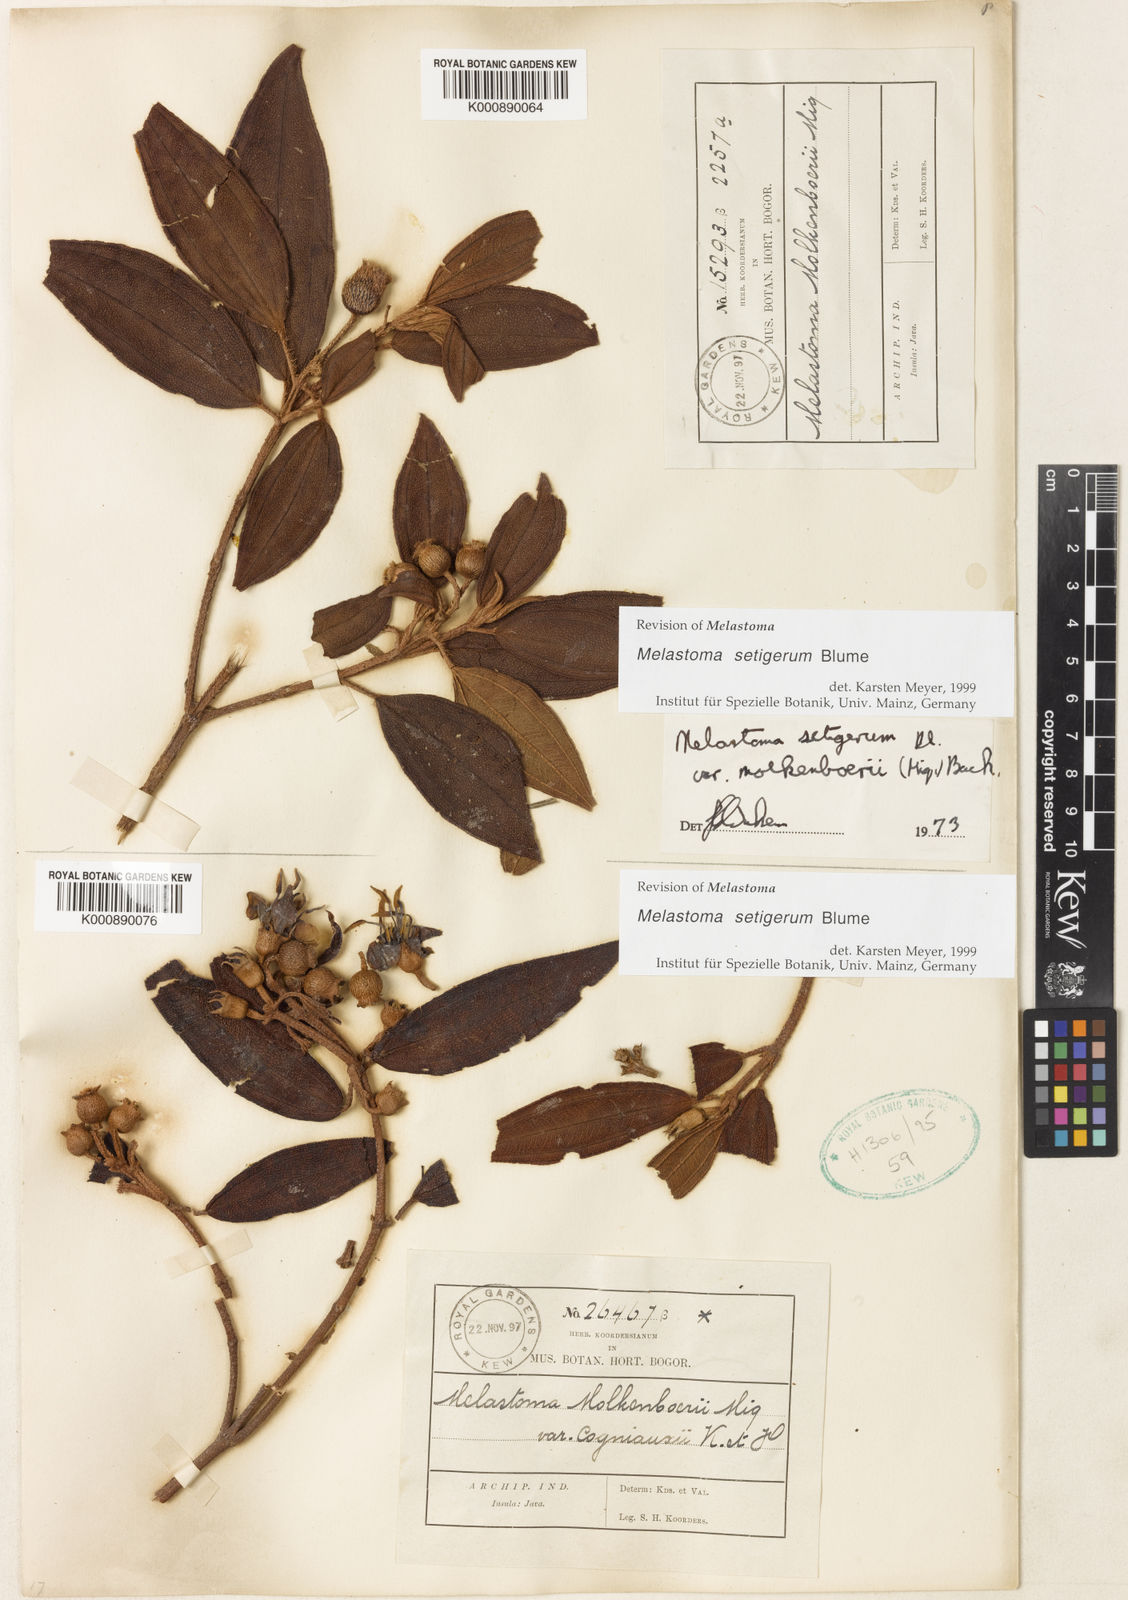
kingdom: Plantae
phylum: Tracheophyta
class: Magnoliopsida
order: Myrtales
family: Melastomataceae
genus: Melastoma
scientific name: Melastoma malabathricum
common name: Indian-rhododendron
